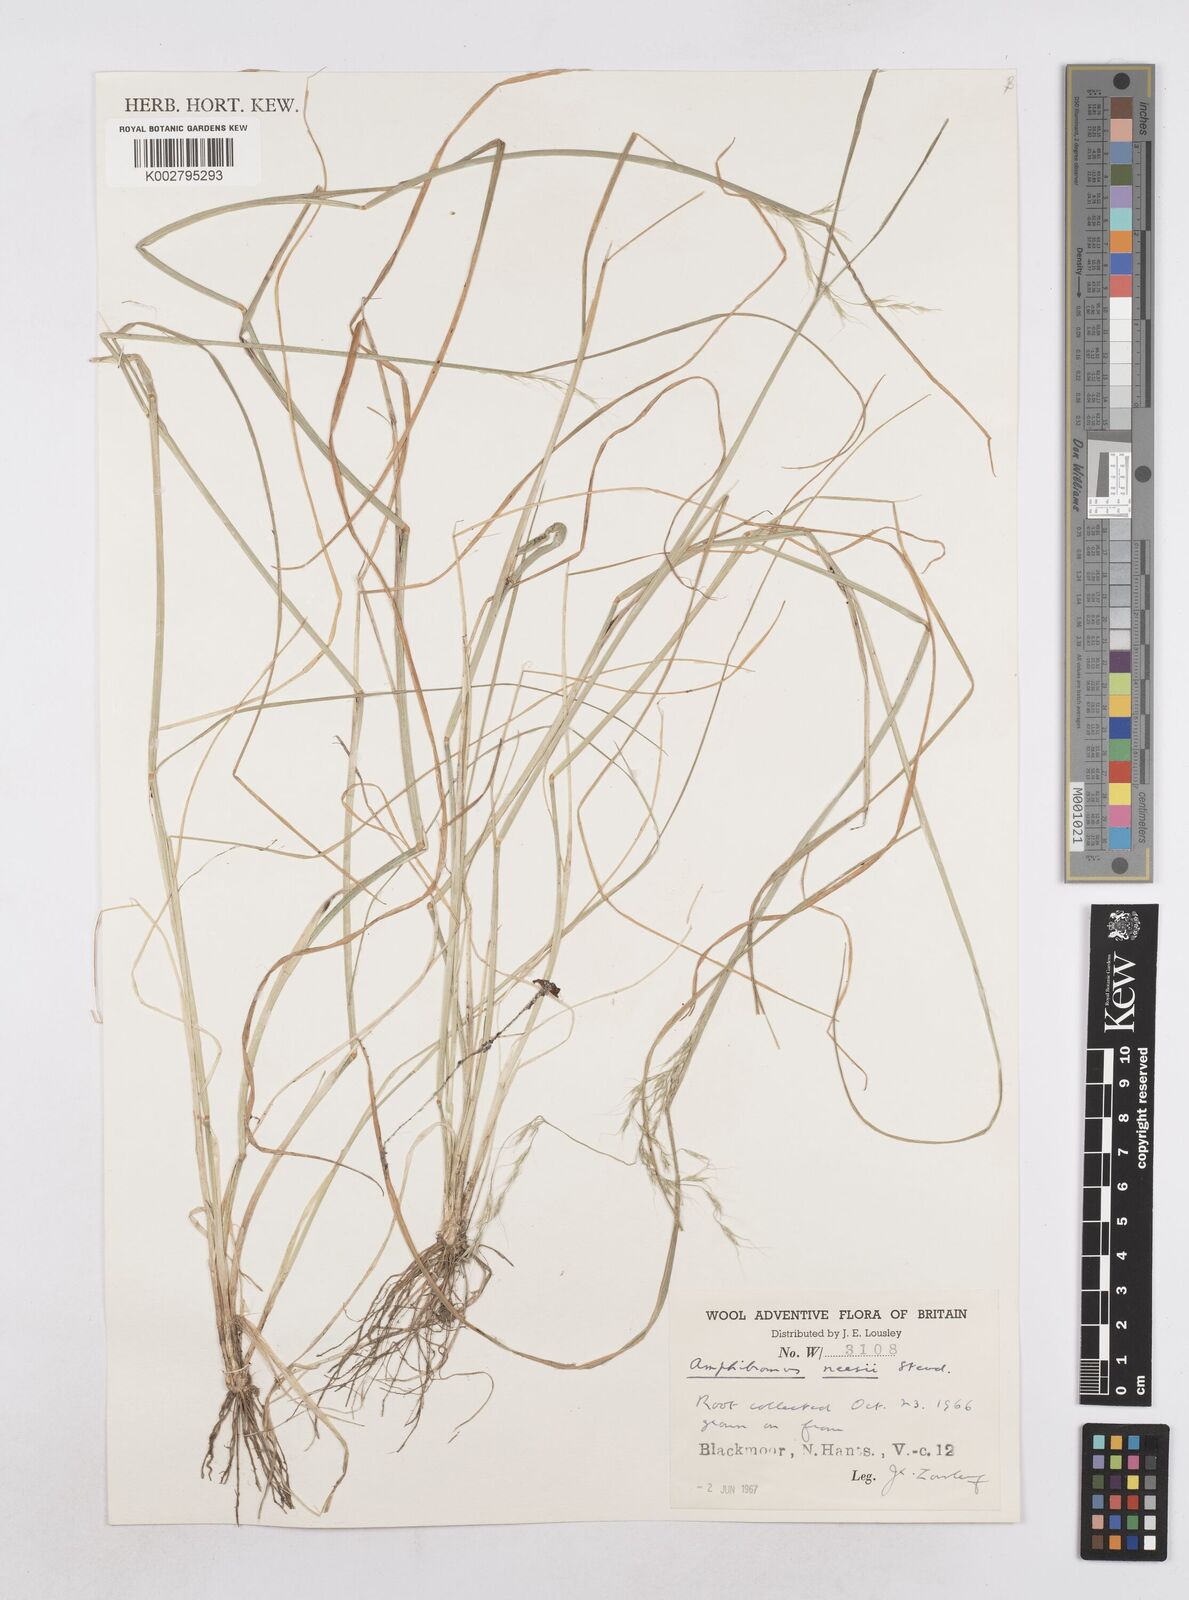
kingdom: Plantae
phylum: Tracheophyta
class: Liliopsida
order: Poales
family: Poaceae
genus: Amphibromus
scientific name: Amphibromus neesii
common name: Australian wallaby grass
